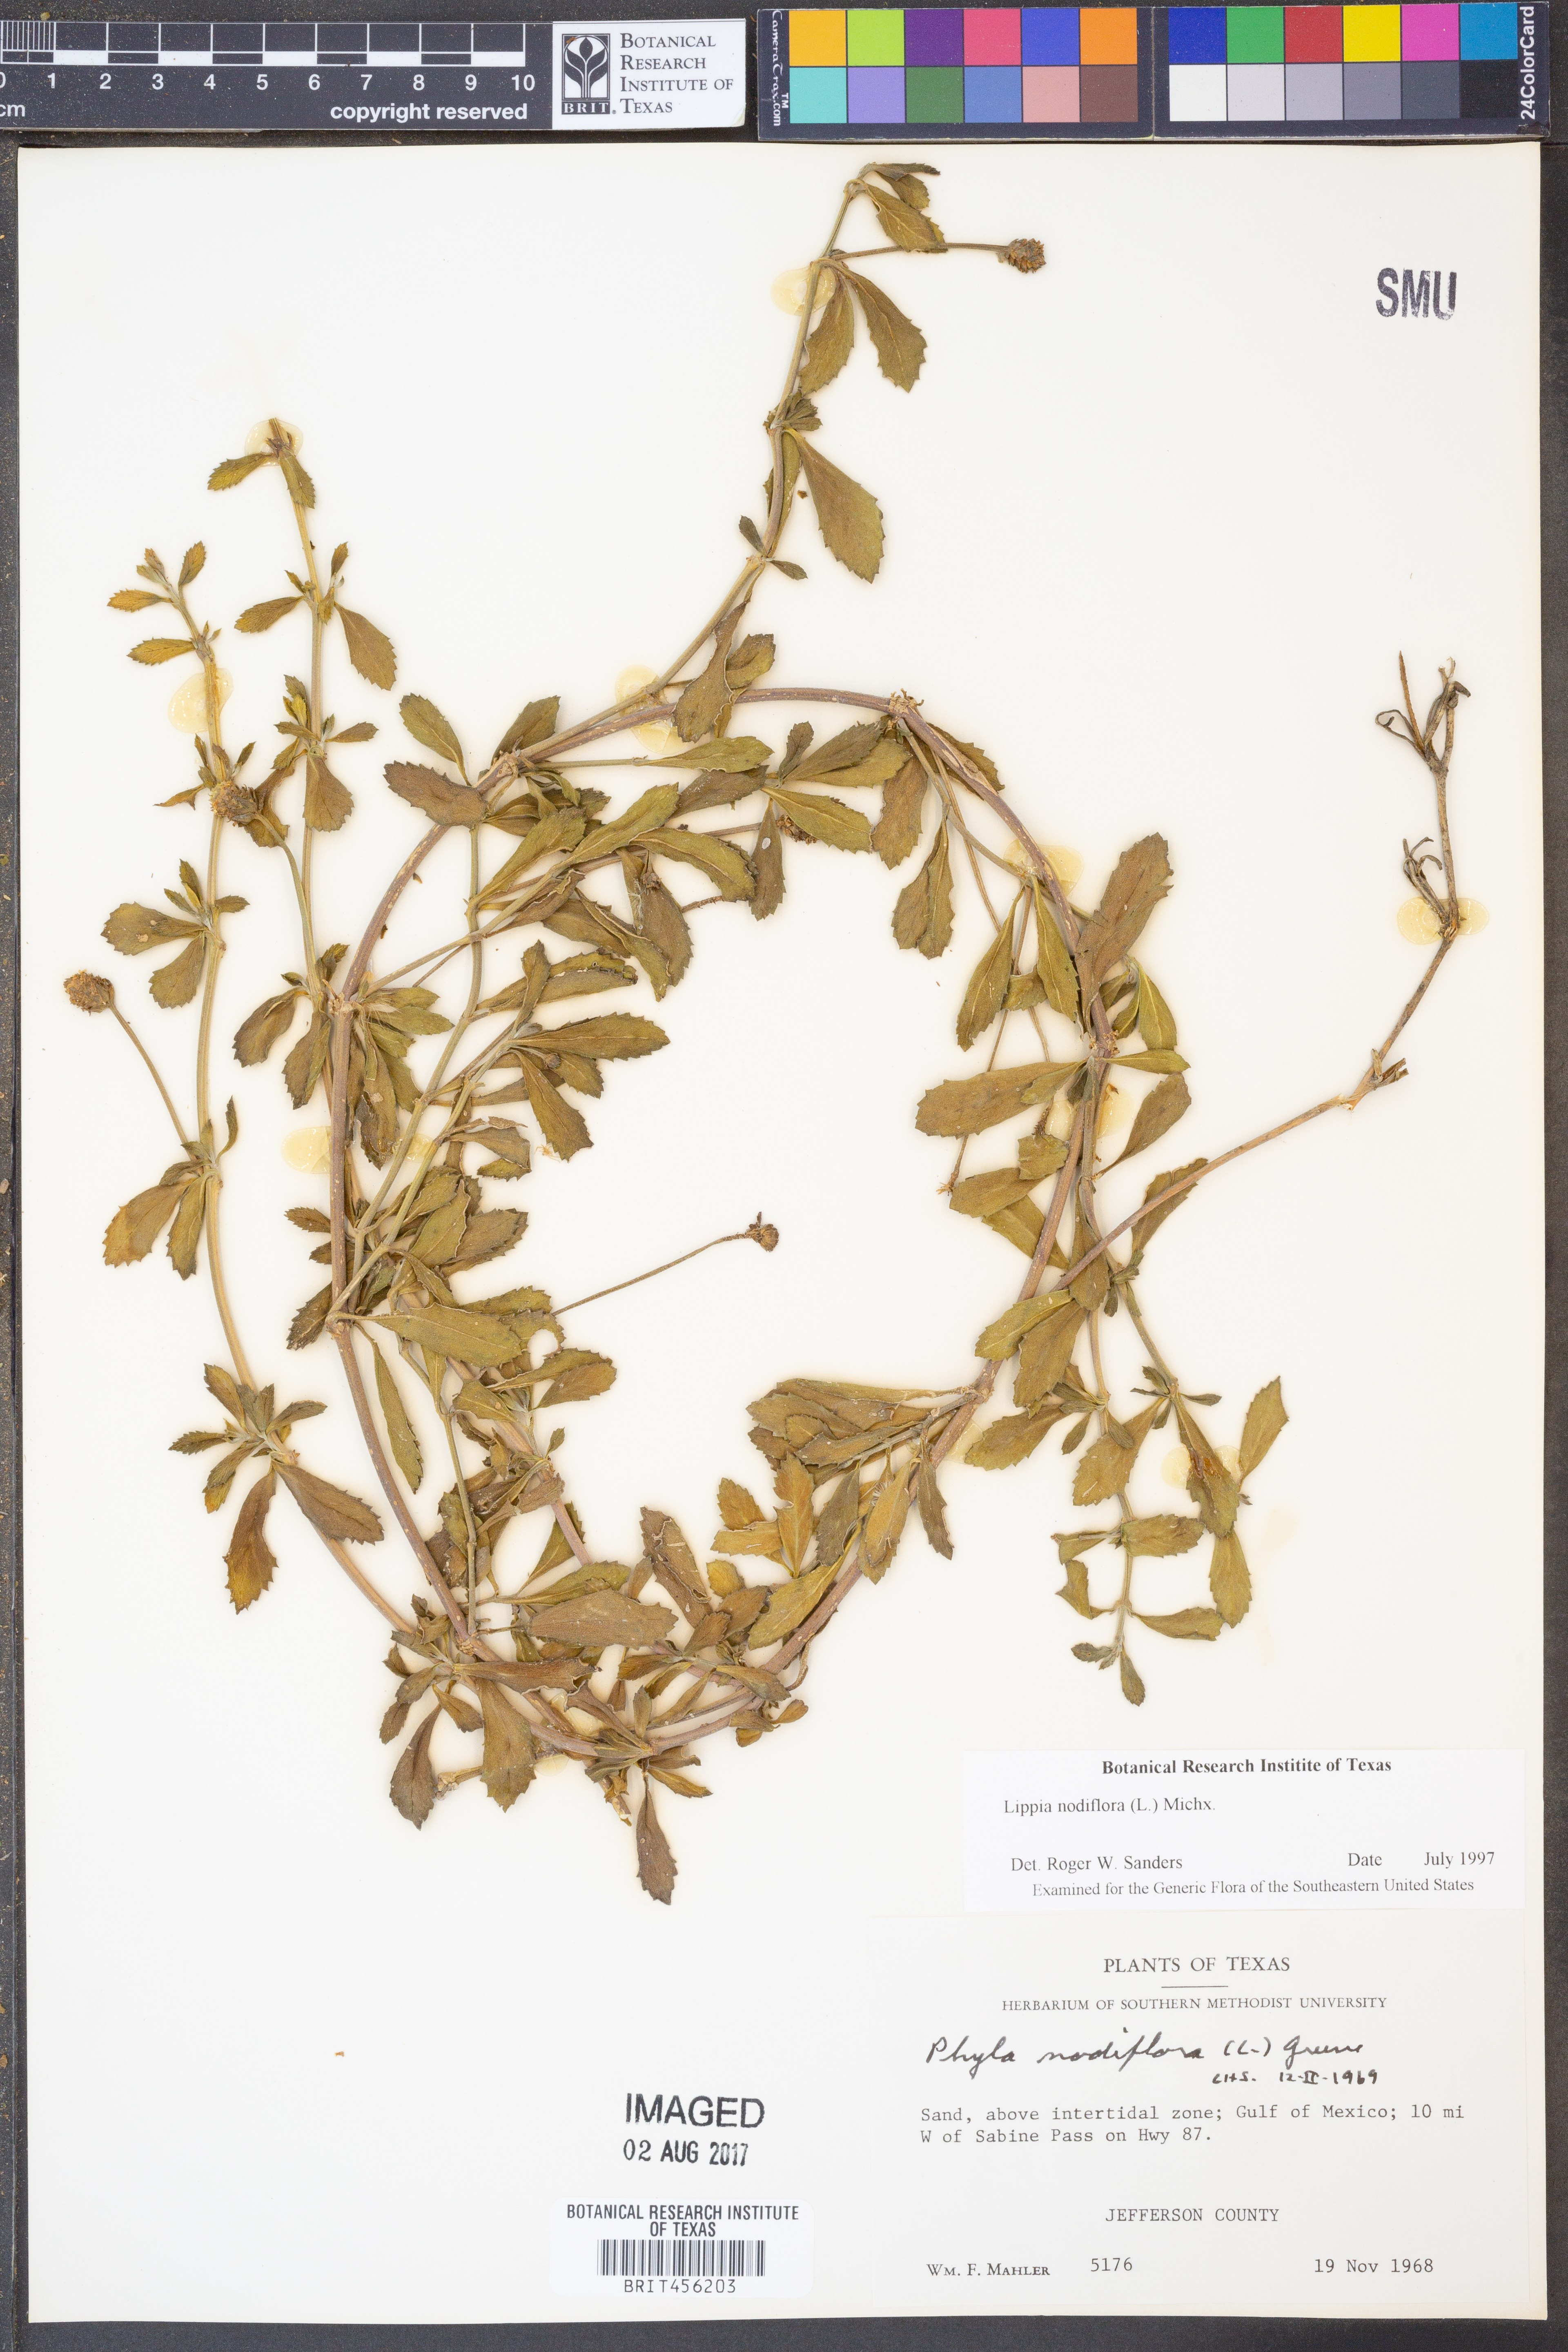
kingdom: Plantae
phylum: Tracheophyta
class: Magnoliopsida
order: Lamiales
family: Verbenaceae
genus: Phyla
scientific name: Phyla nodiflora
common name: Frogfruit
